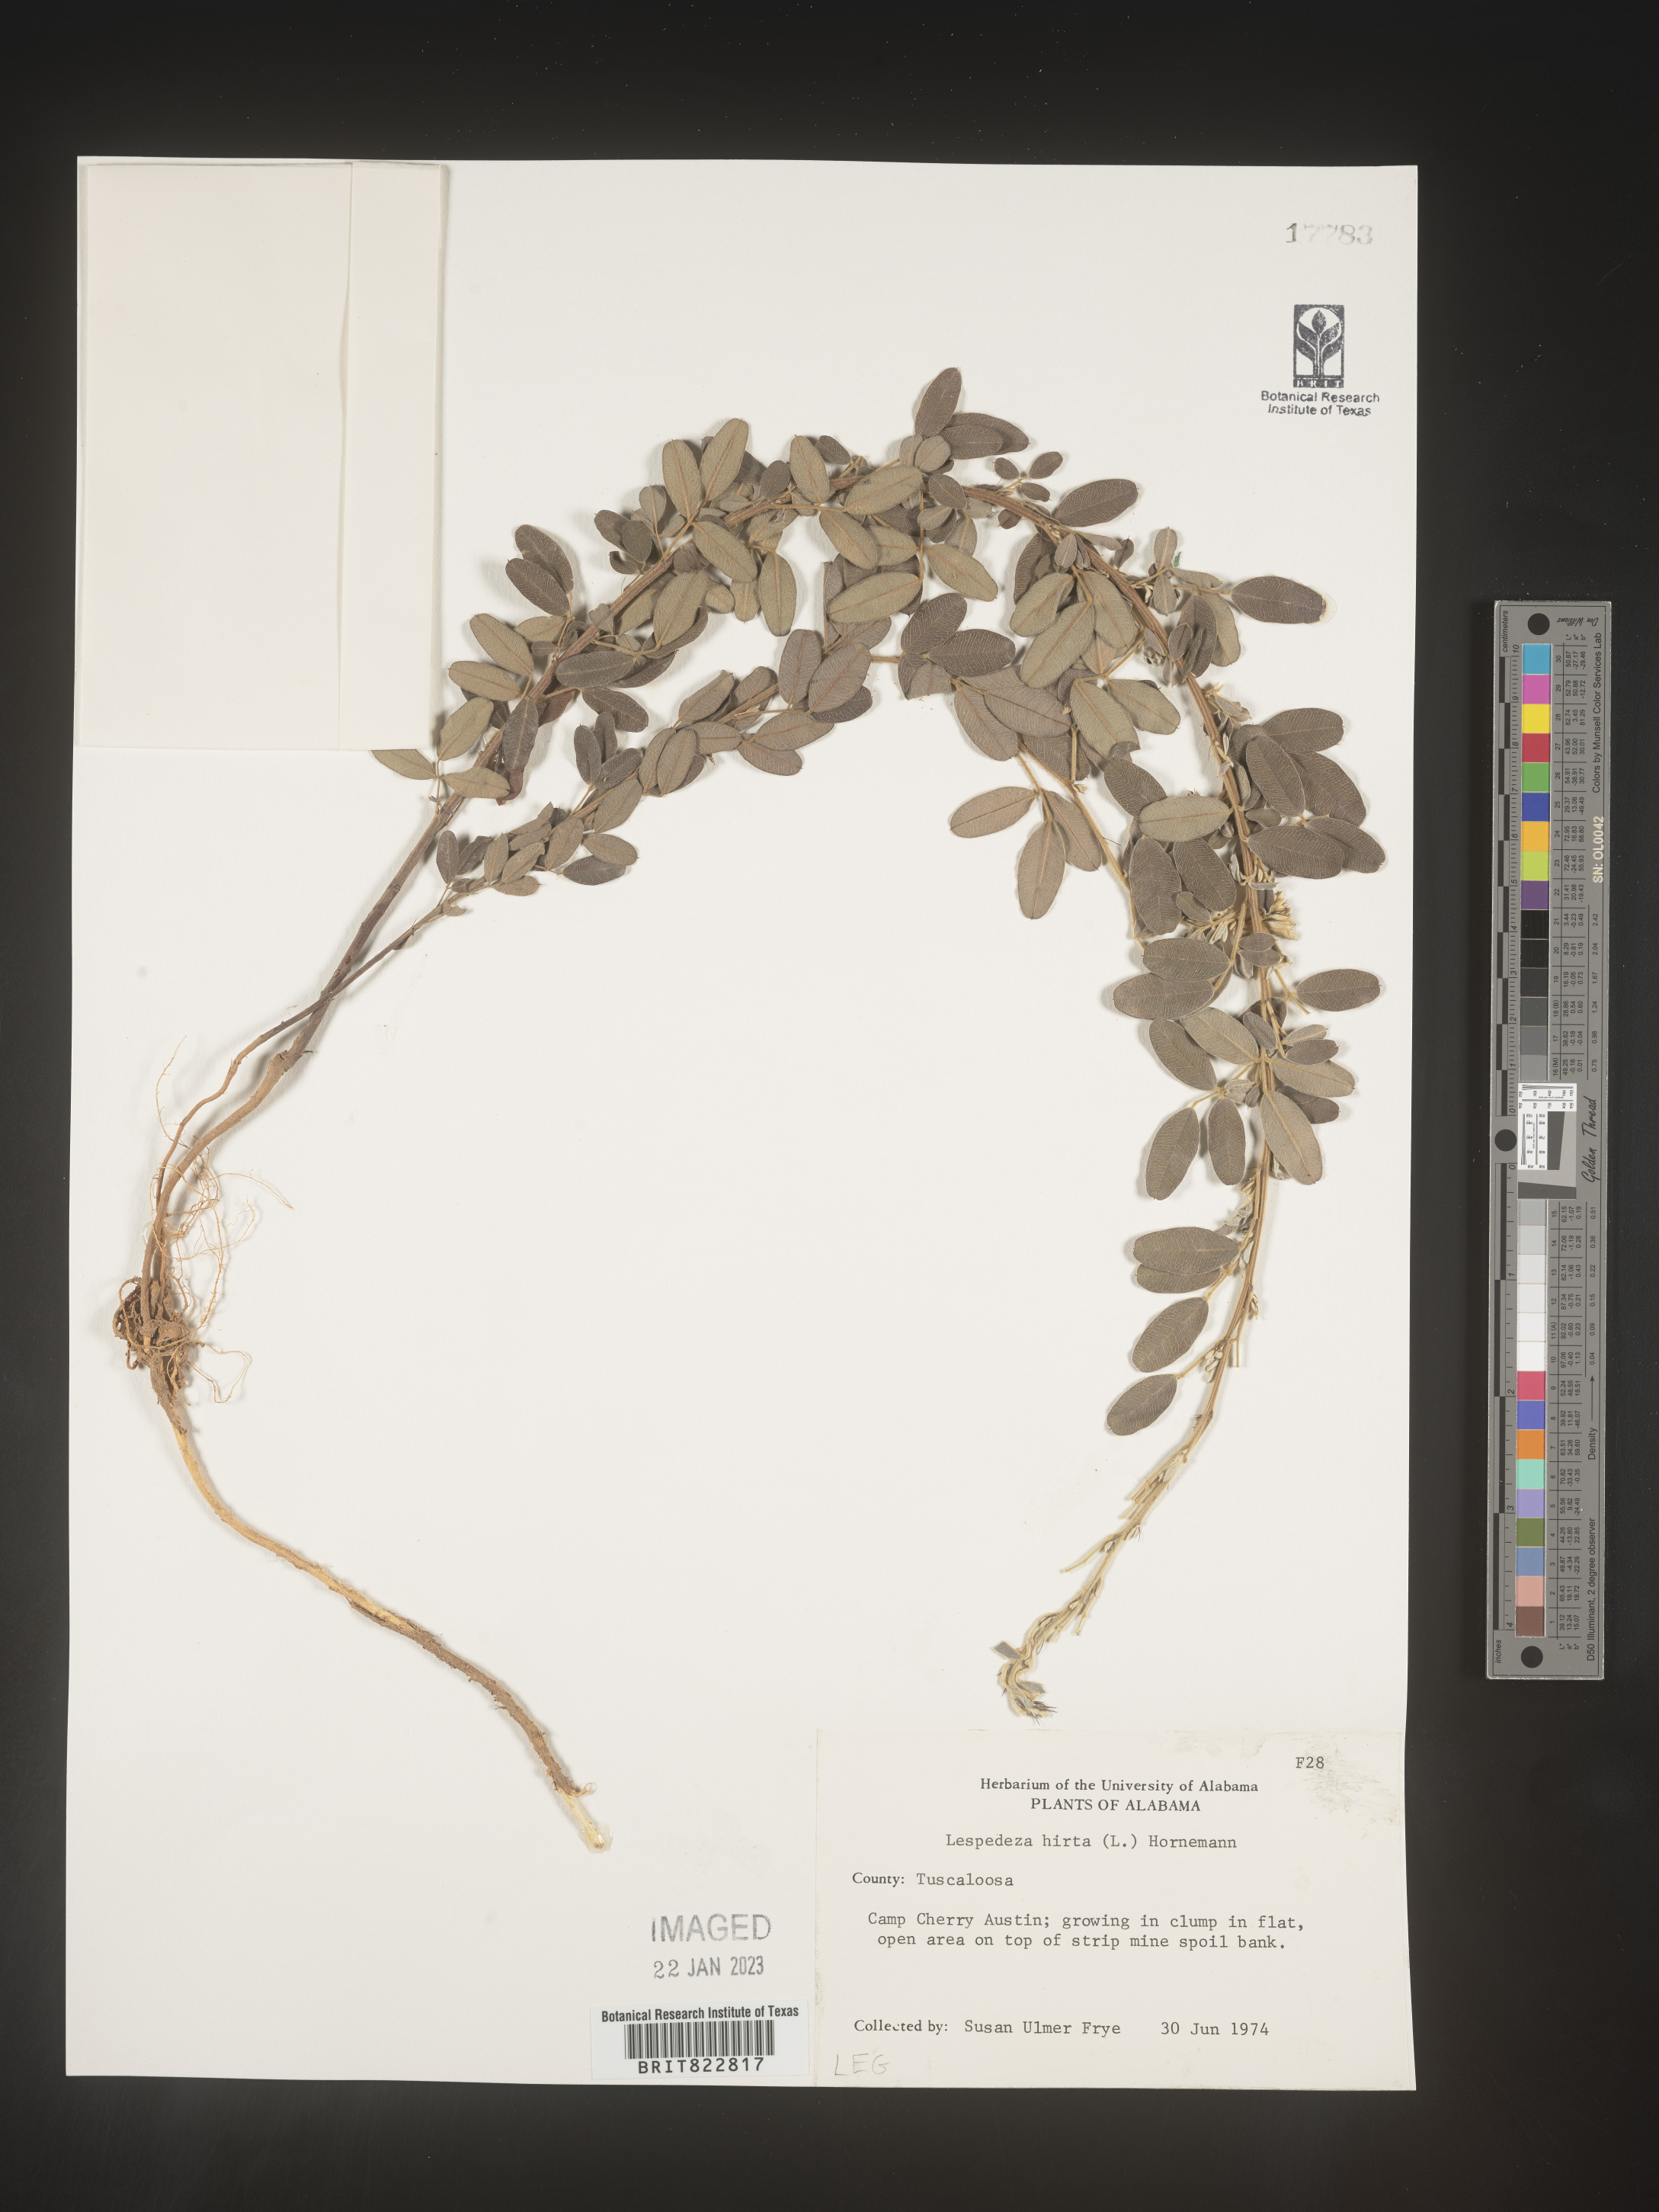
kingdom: Plantae
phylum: Tracheophyta
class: Magnoliopsida
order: Fabales
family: Fabaceae
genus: Lespedeza
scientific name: Lespedeza hirta
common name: Hairy lespedeza
